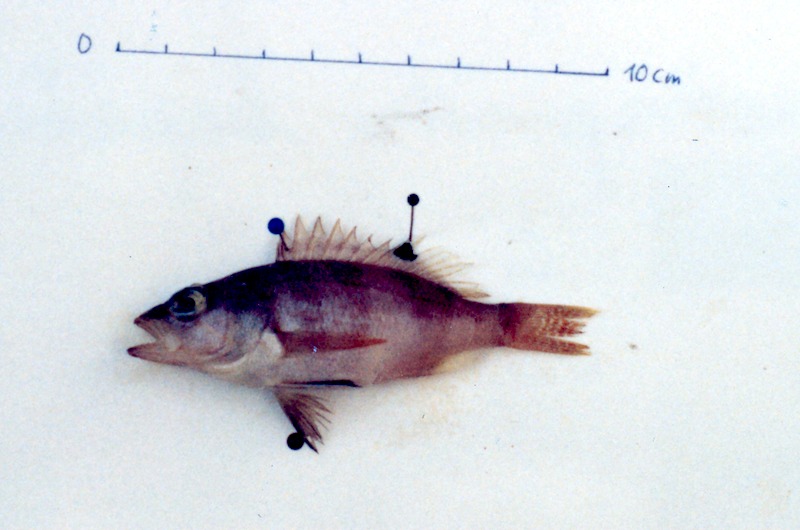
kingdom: Animalia
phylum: Chordata
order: Perciformes
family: Serranidae
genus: Serranus
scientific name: Serranus hepatus
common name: Brown comber
